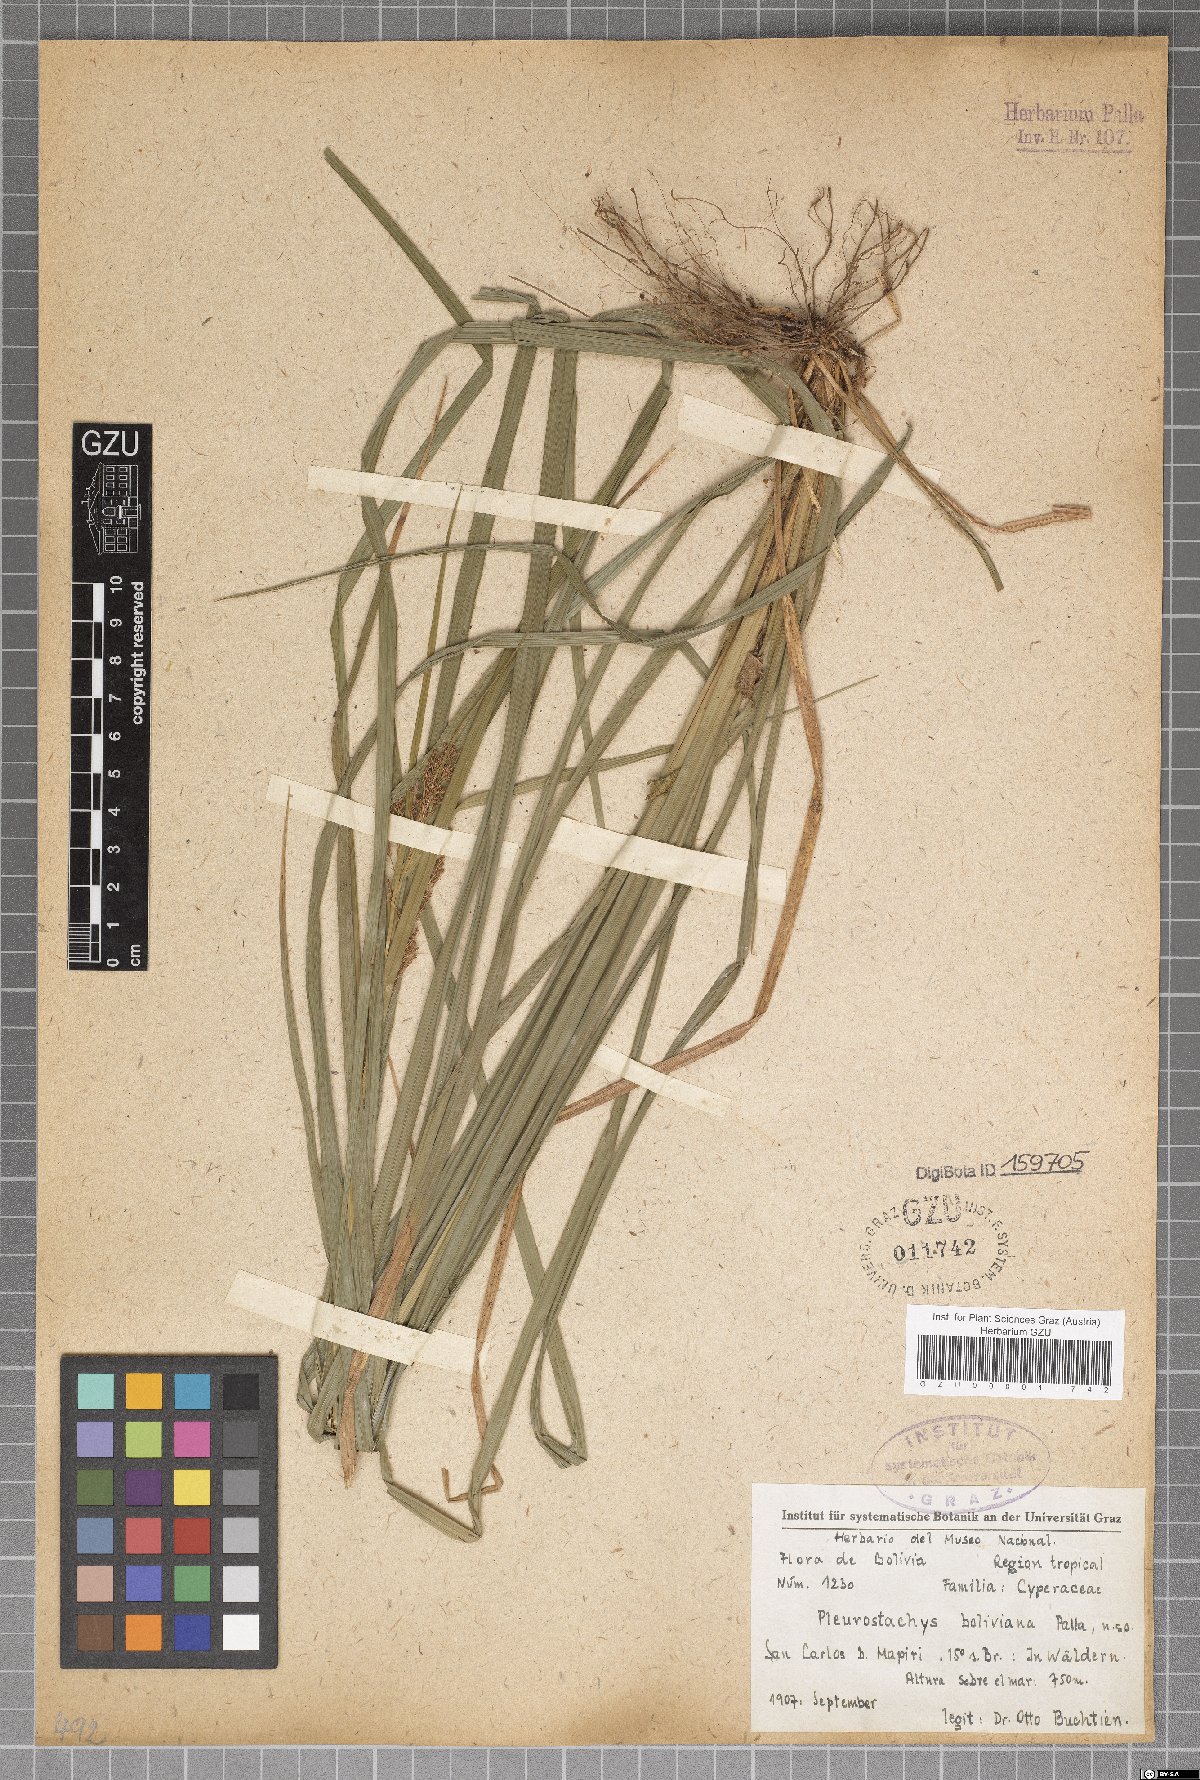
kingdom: Plantae
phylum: Tracheophyta
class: Liliopsida
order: Poales
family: Cyperaceae
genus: Rhynchospora
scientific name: Rhynchospora Pleurostachys boliviana
